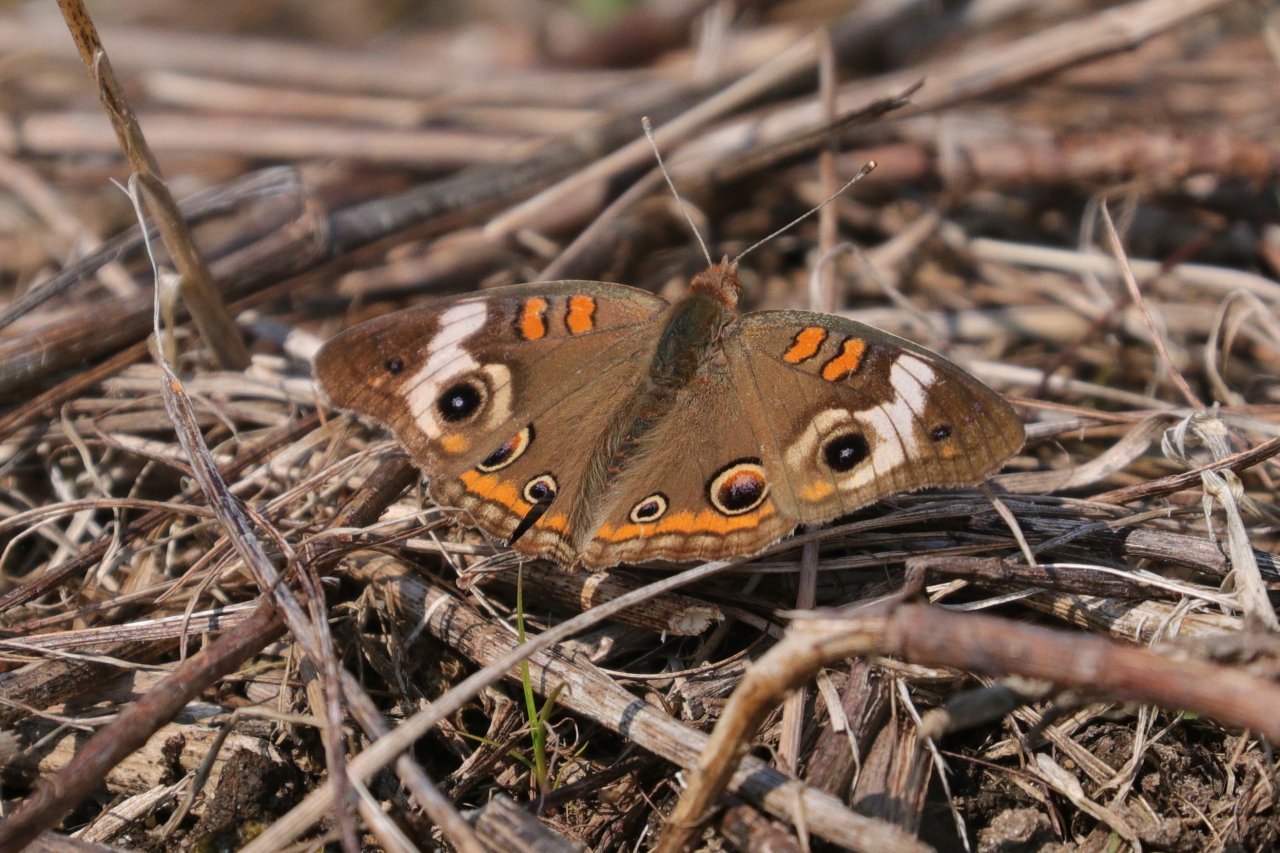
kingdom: Animalia
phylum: Arthropoda
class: Insecta
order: Lepidoptera
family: Nymphalidae
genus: Junonia
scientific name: Junonia coenia
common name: Common Buckeye
